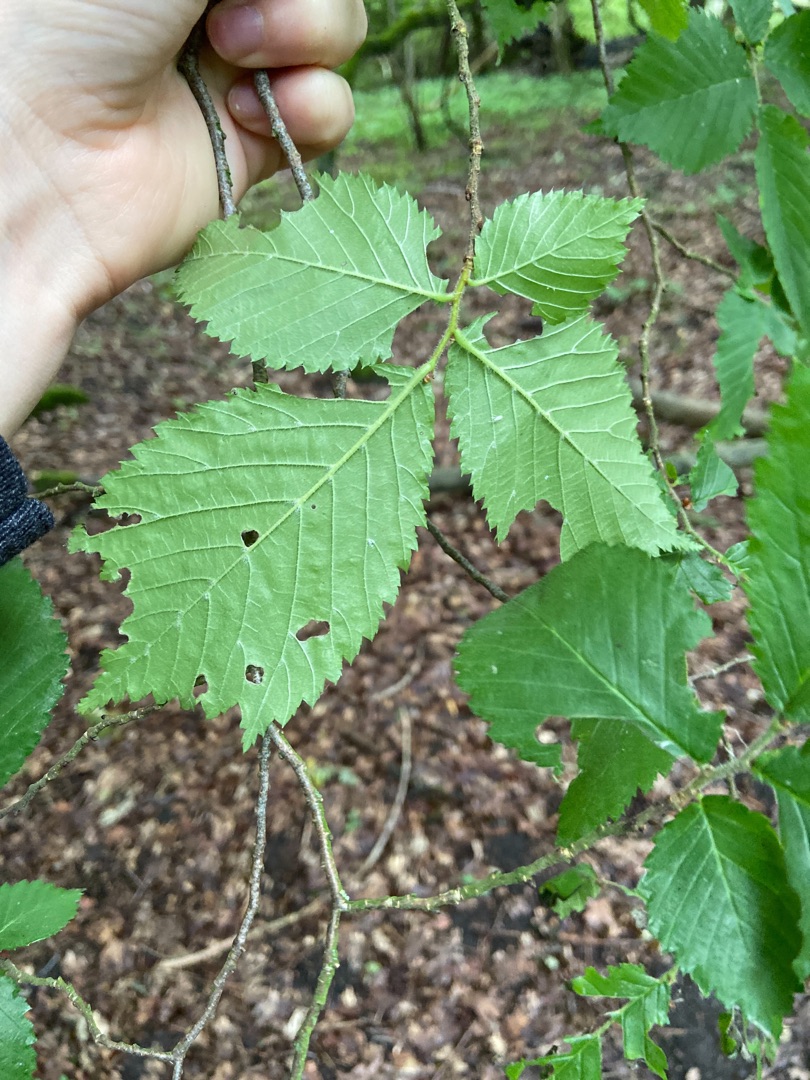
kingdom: Plantae
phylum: Tracheophyta
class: Magnoliopsida
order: Rosales
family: Ulmaceae
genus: Ulmus
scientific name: Ulmus glabra
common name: Skov-elm/storbladet elm
